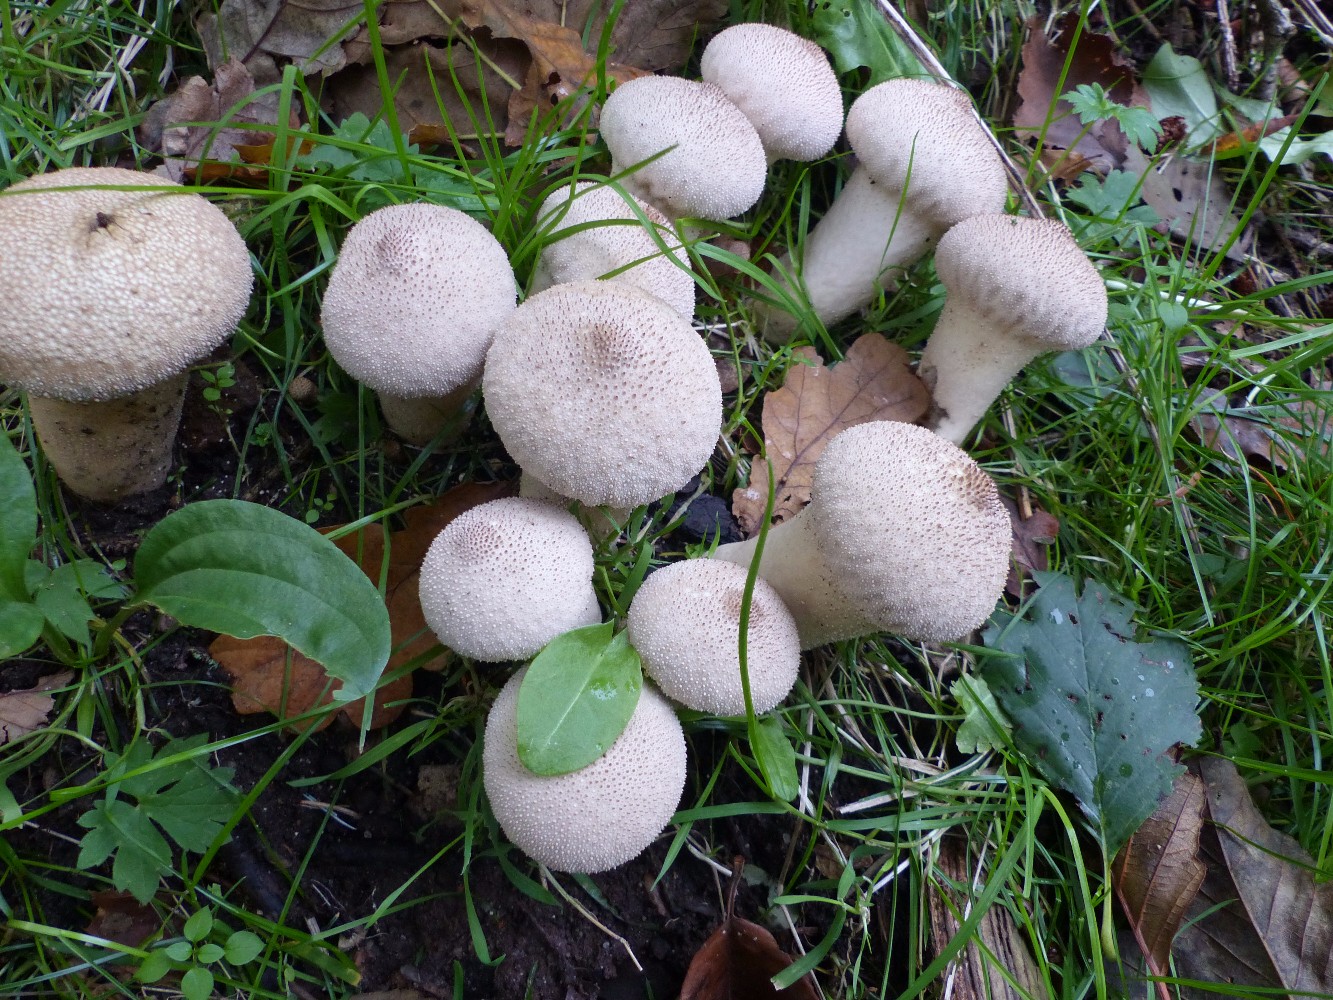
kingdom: Fungi
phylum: Basidiomycota
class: Agaricomycetes
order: Agaricales
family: Lycoperdaceae
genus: Lycoperdon
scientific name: Lycoperdon perlatum
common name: krystal-støvbold
